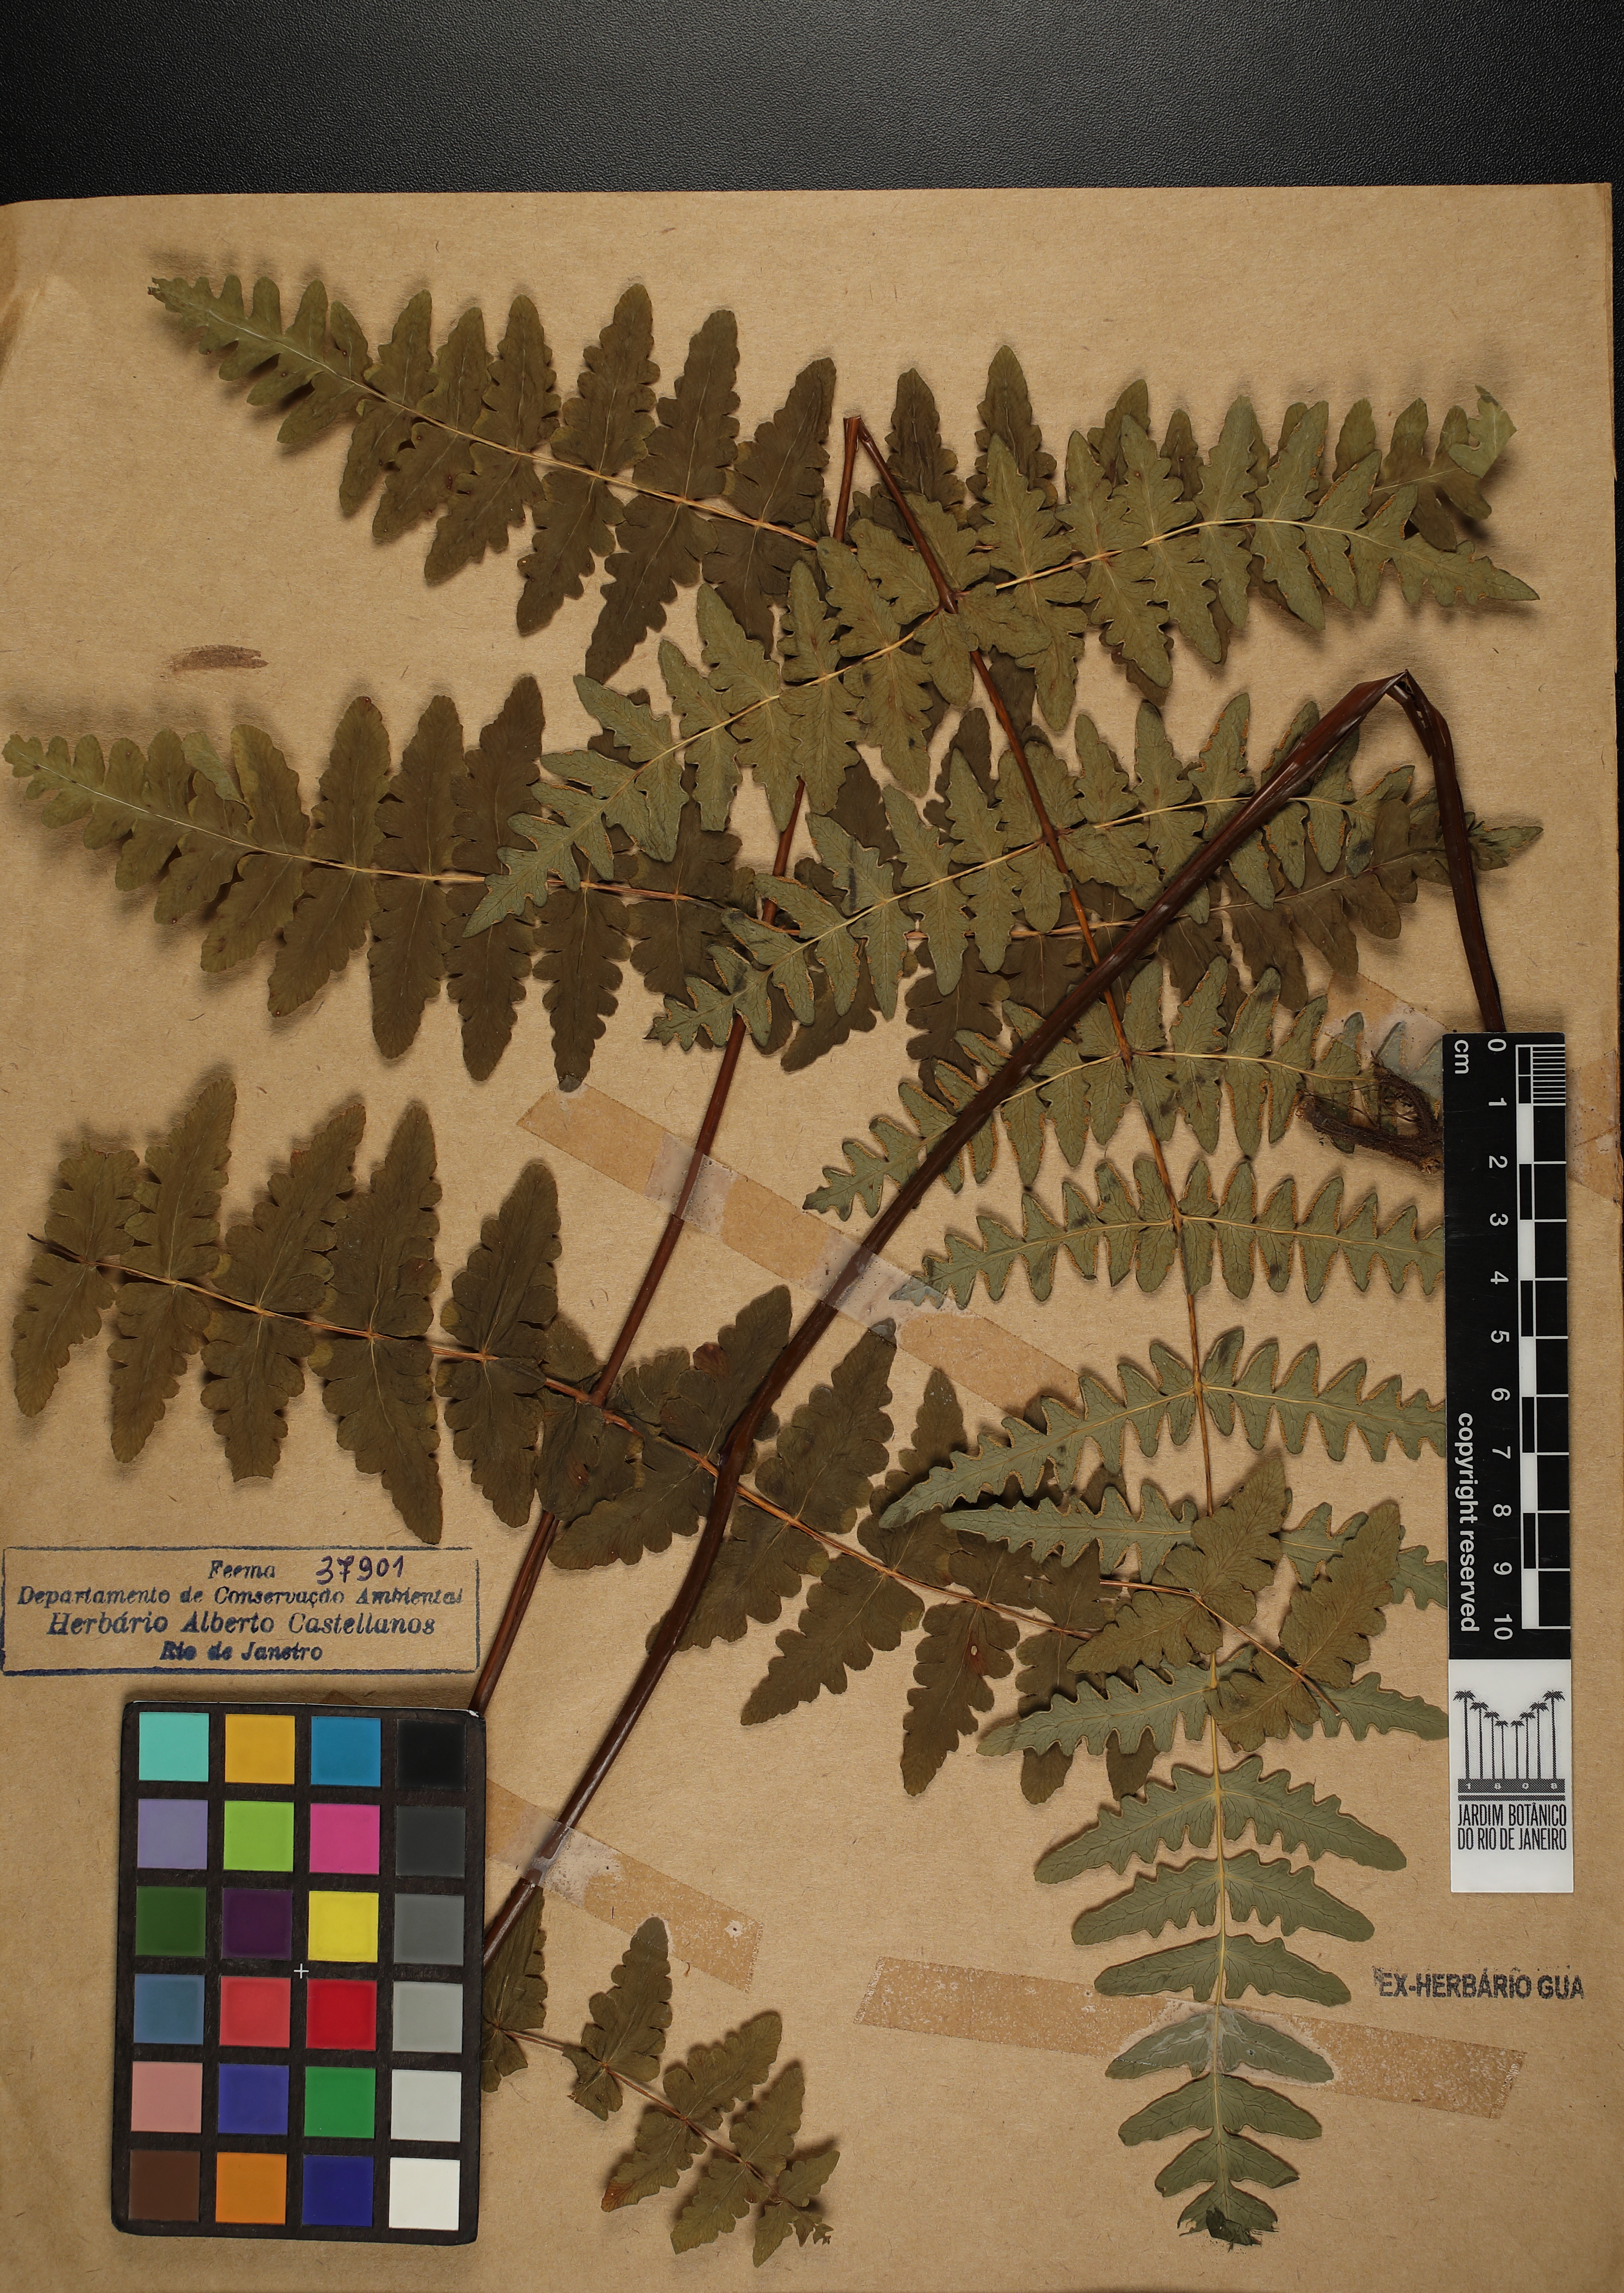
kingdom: Plantae
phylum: Tracheophyta
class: Polypodiopsida
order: Polypodiales
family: Dennstaedtiaceae
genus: Histiopteris
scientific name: Histiopteris incisa
